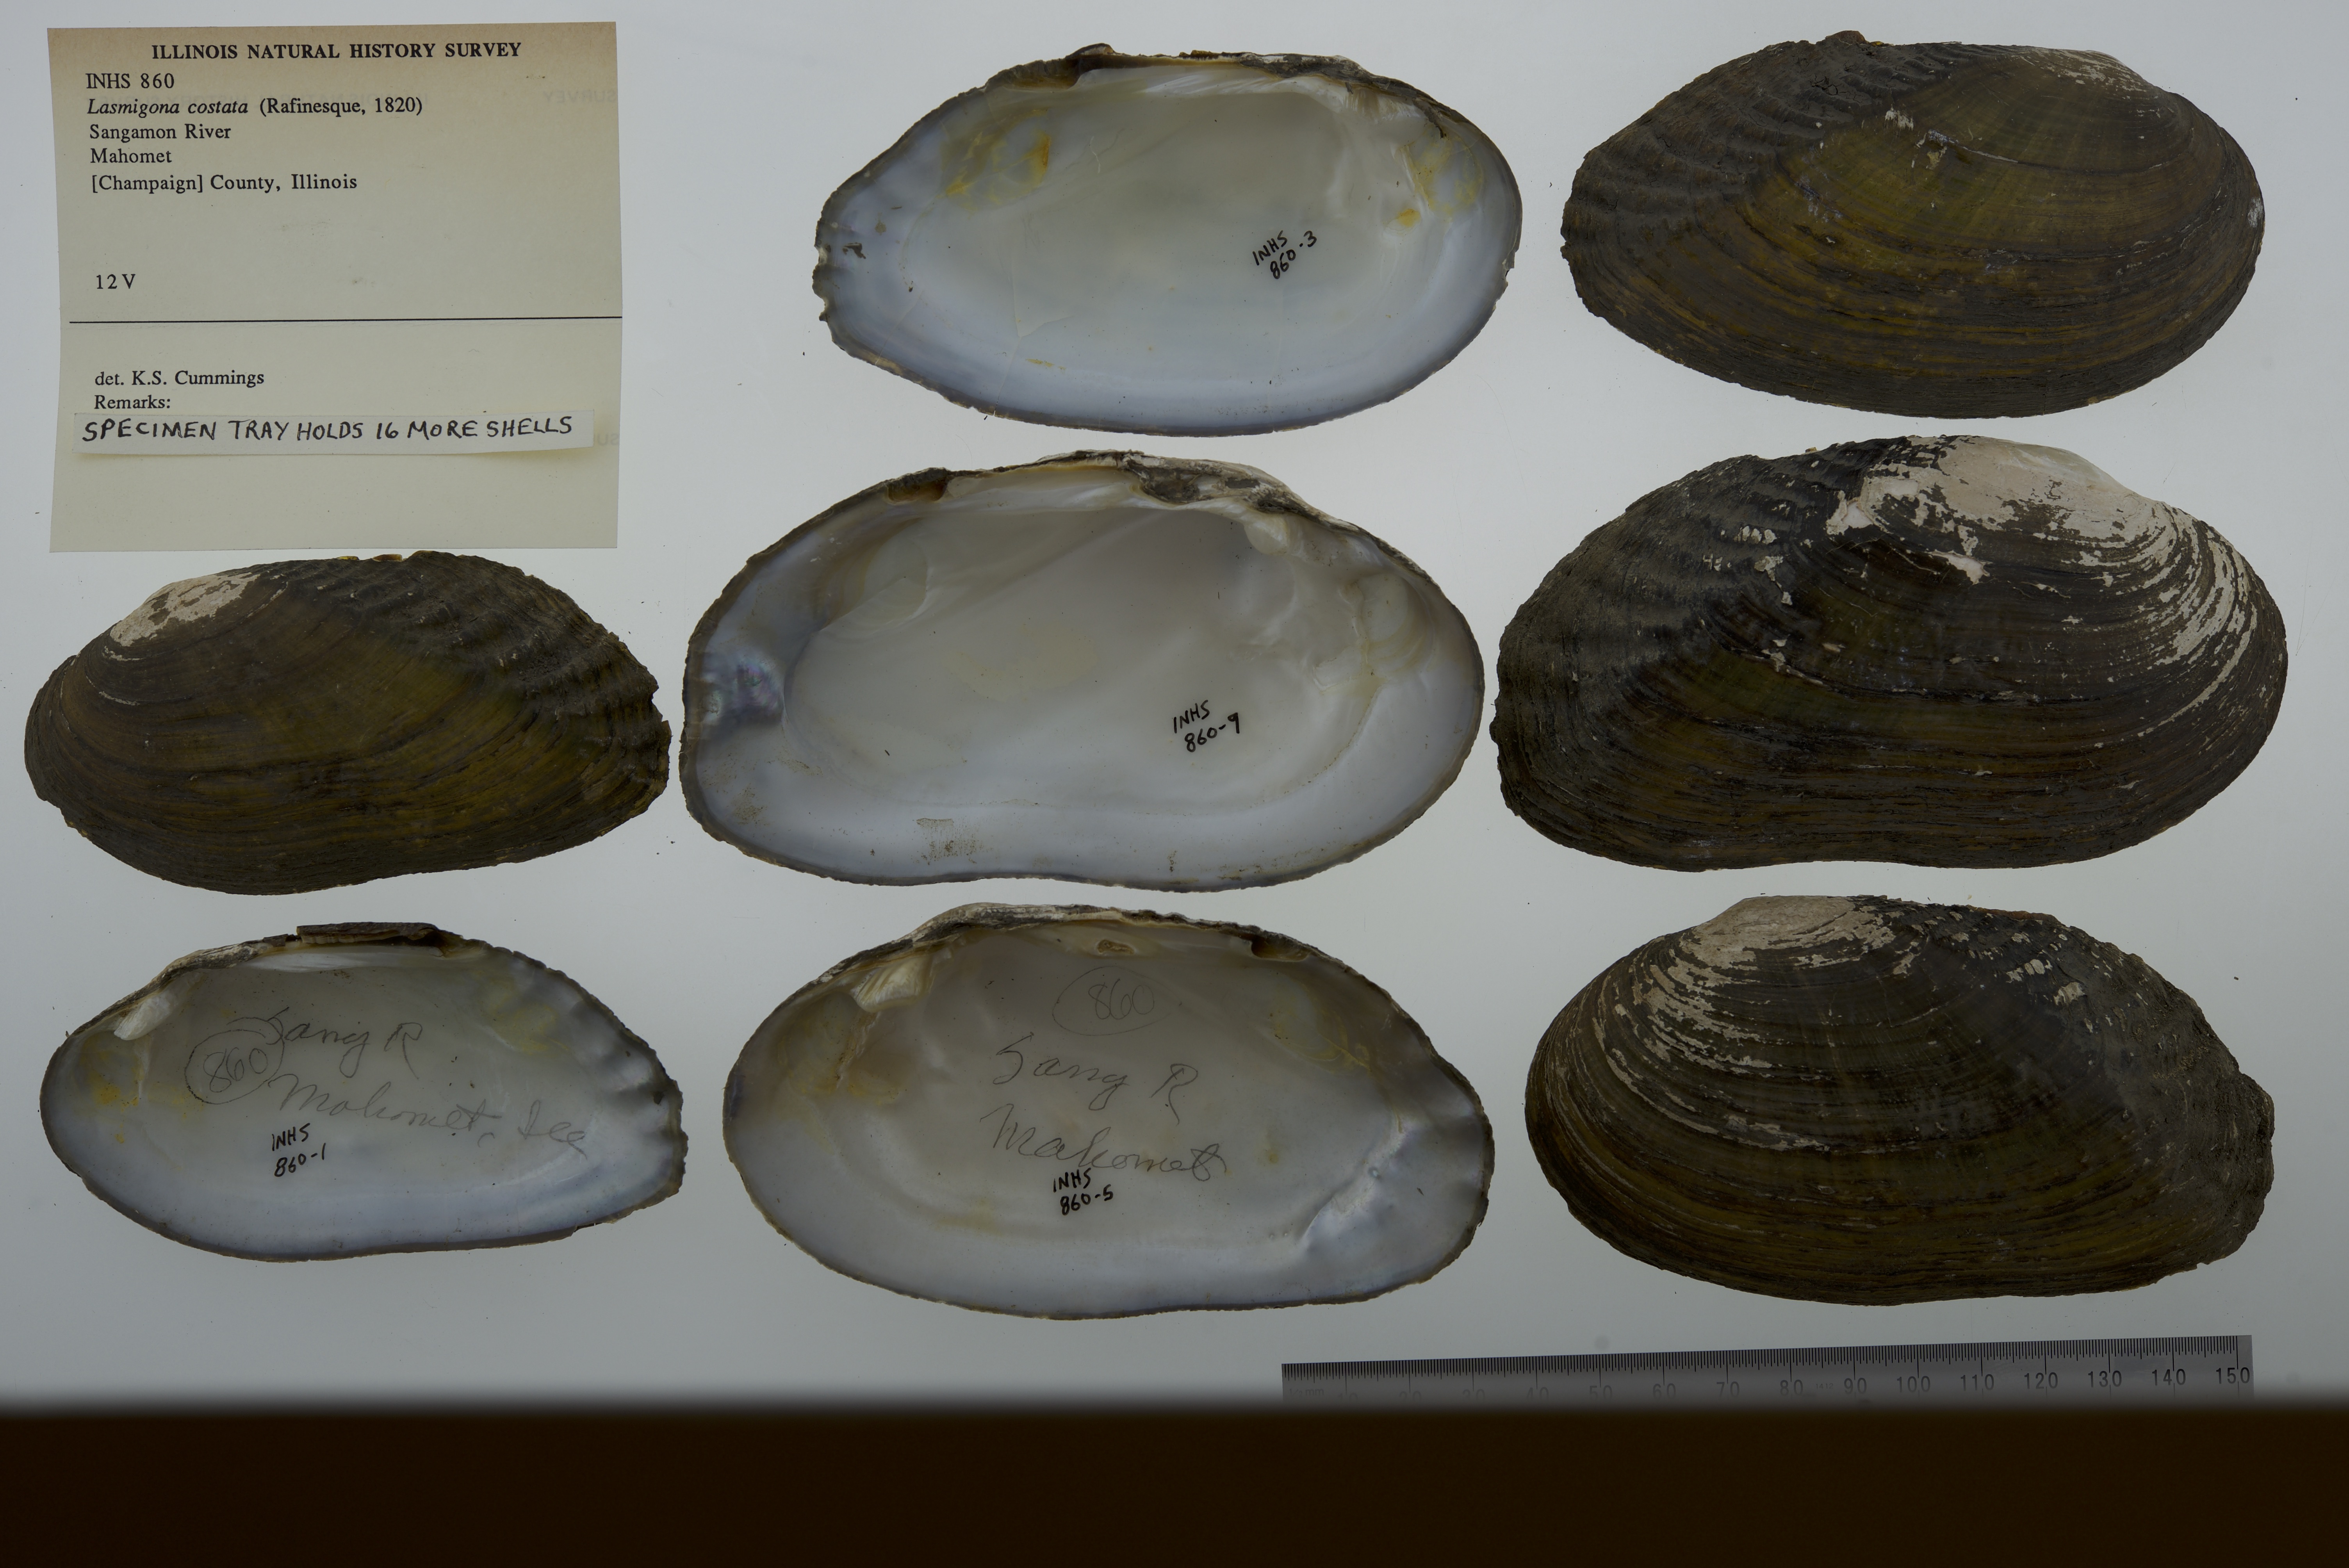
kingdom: Animalia
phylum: Mollusca
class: Bivalvia
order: Unionida
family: Unionidae
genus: Lasmigona
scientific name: Lasmigona costata
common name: Flutedshell
